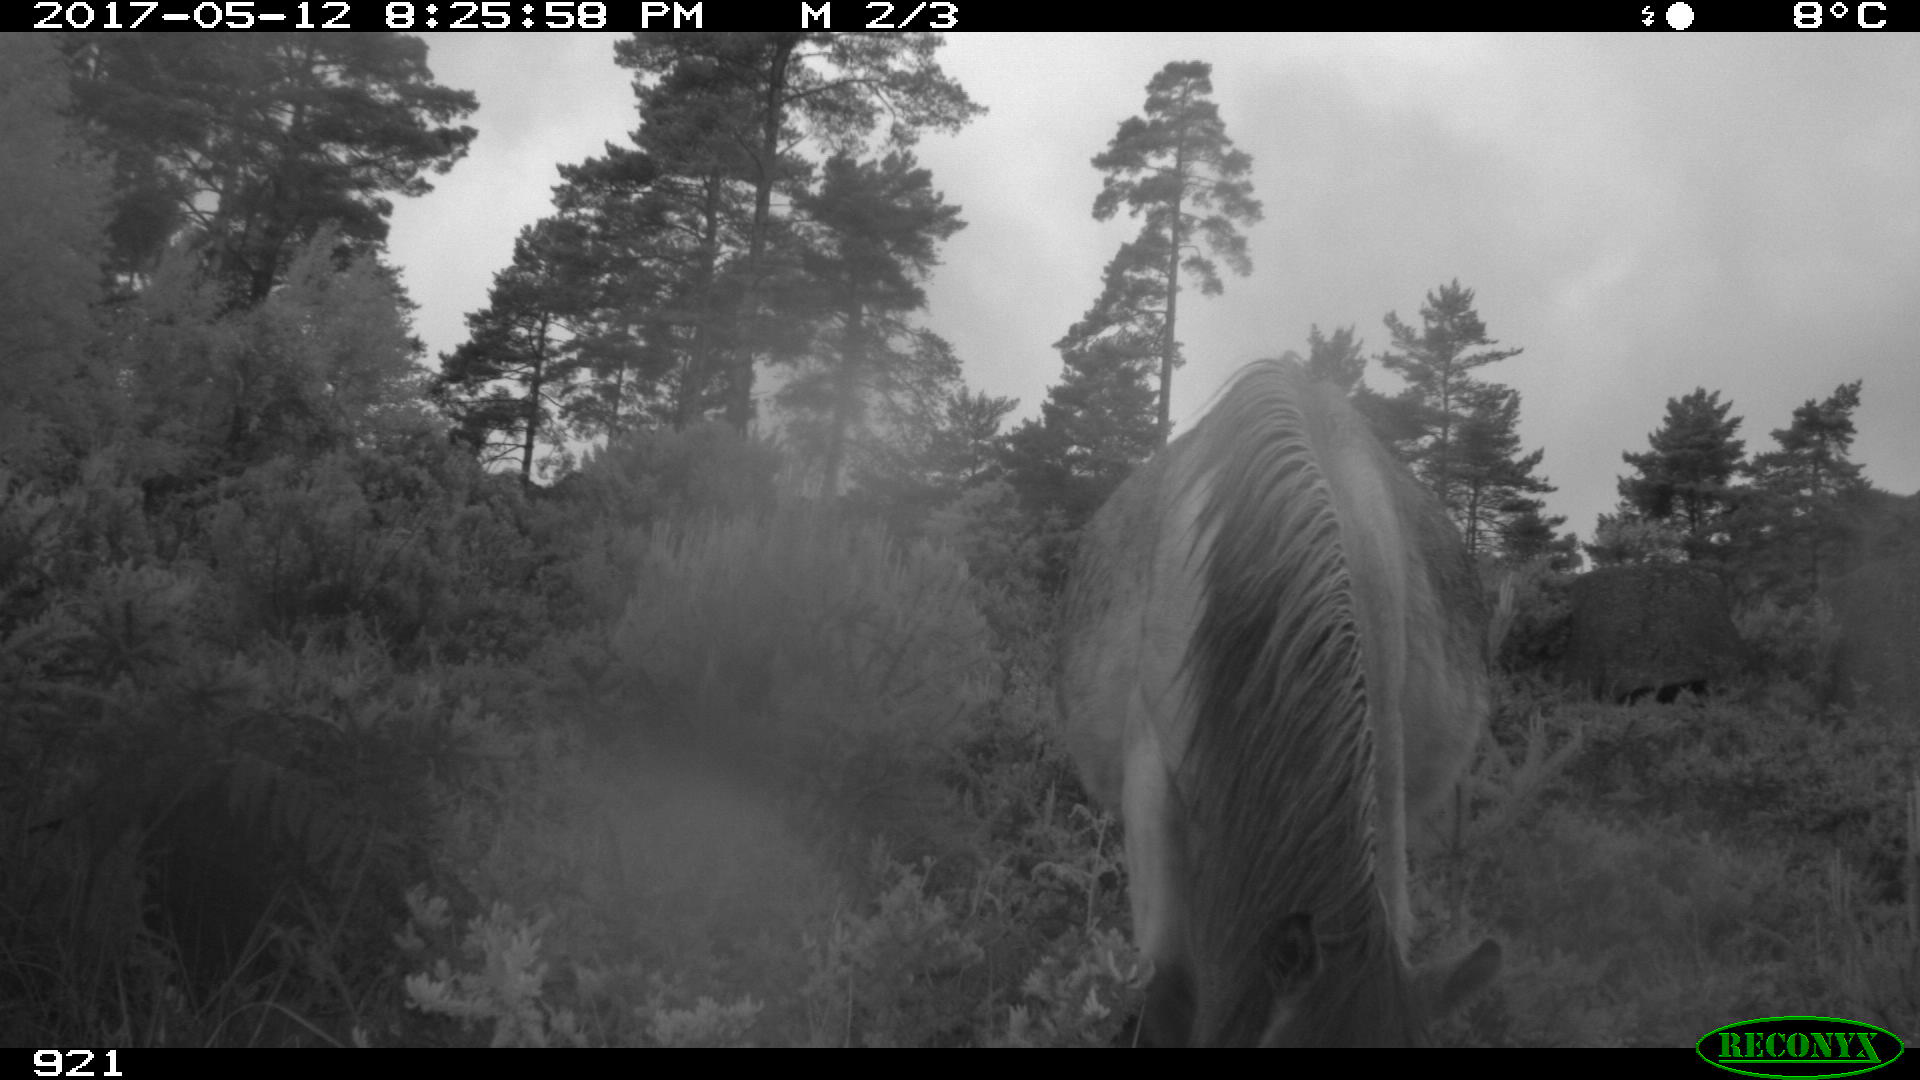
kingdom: Animalia
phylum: Chordata
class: Mammalia
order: Perissodactyla
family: Equidae
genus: Equus
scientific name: Equus caballus
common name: Horse
